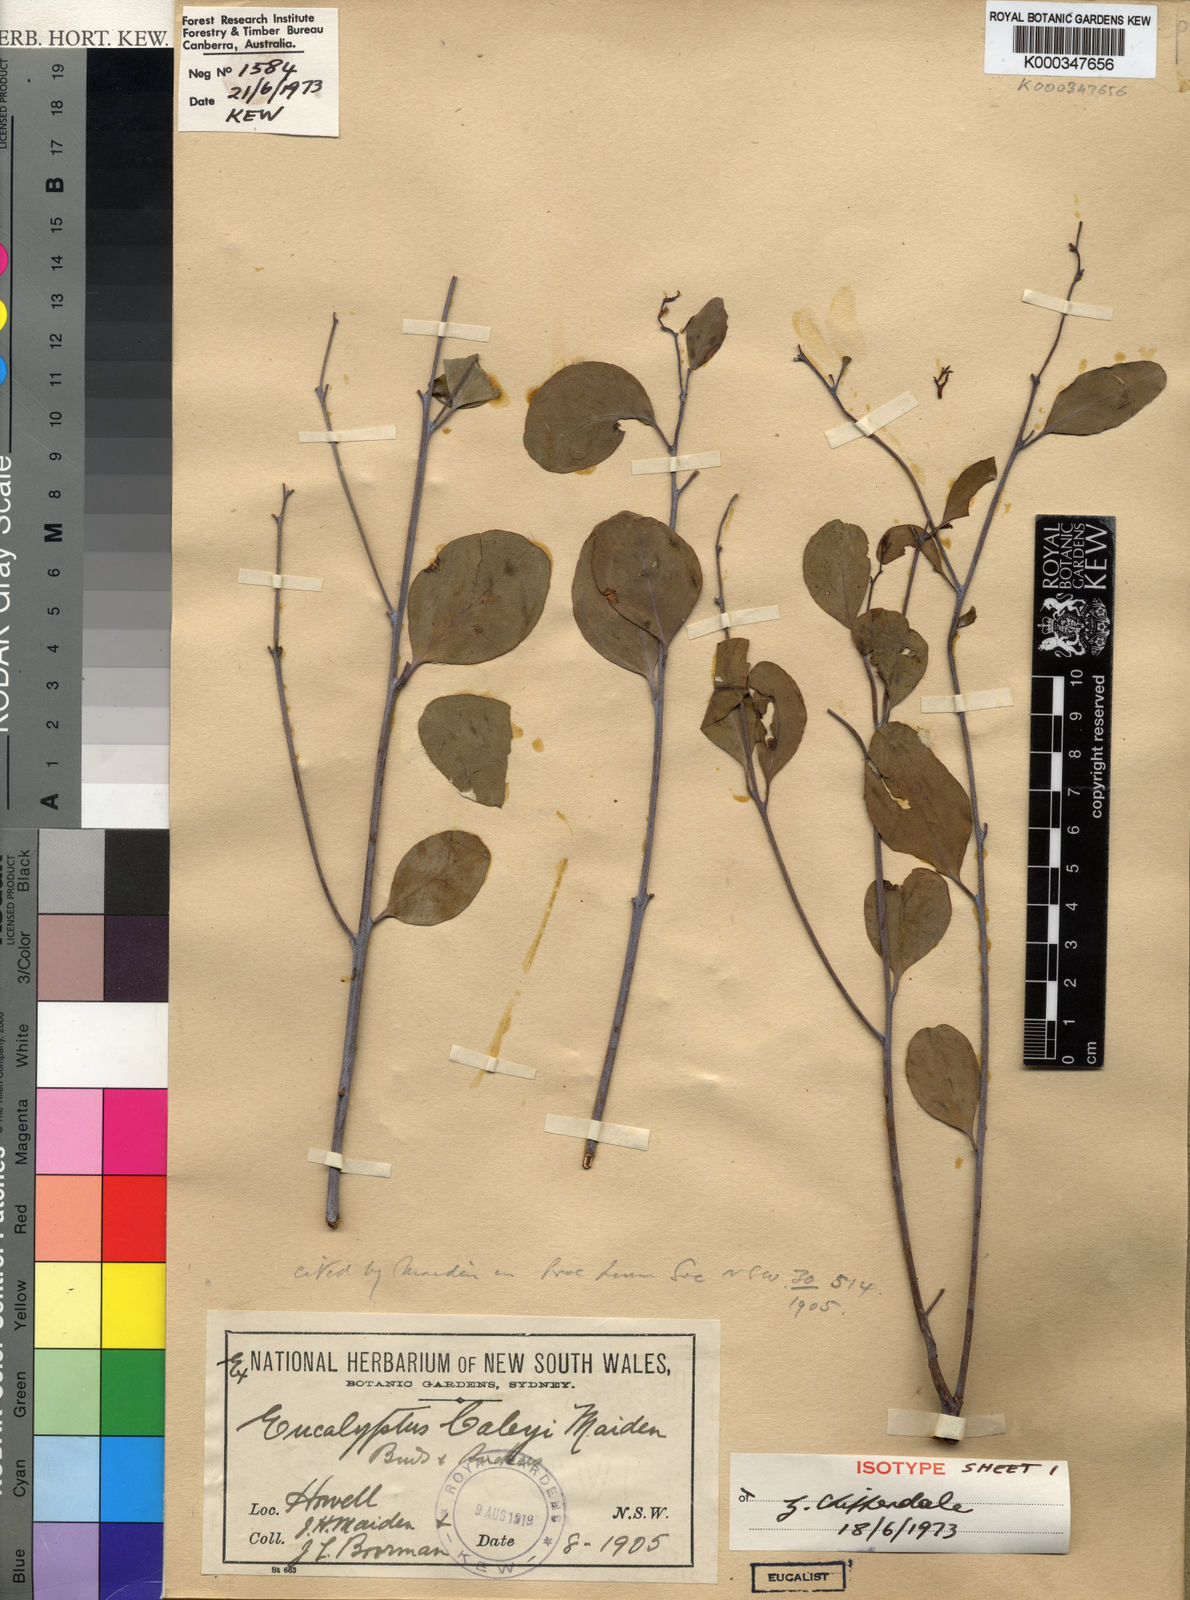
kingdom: Plantae
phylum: Tracheophyta
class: Magnoliopsida
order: Myrtales
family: Myrtaceae
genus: Eucalyptus
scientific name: Eucalyptus caleyi
